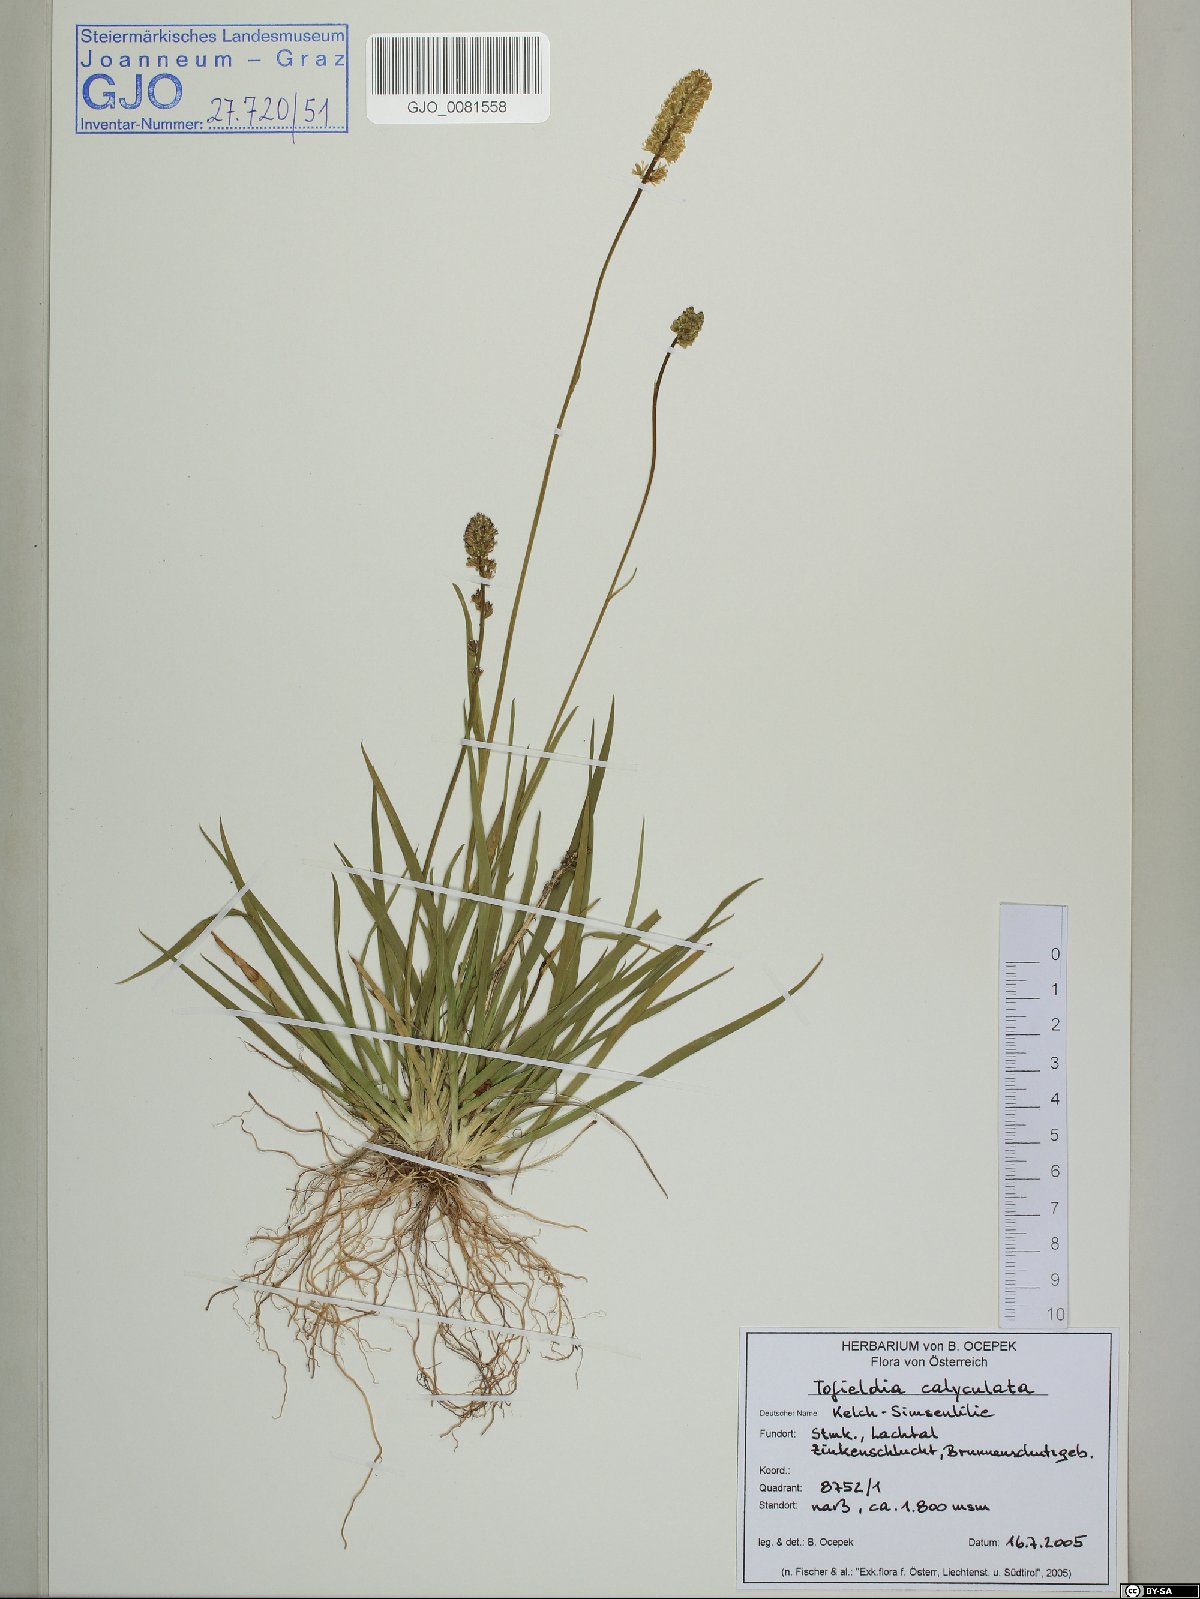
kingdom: Plantae
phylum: Tracheophyta
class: Liliopsida
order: Alismatales
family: Tofieldiaceae
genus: Tofieldia
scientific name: Tofieldia calyculata
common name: German-asphodel
